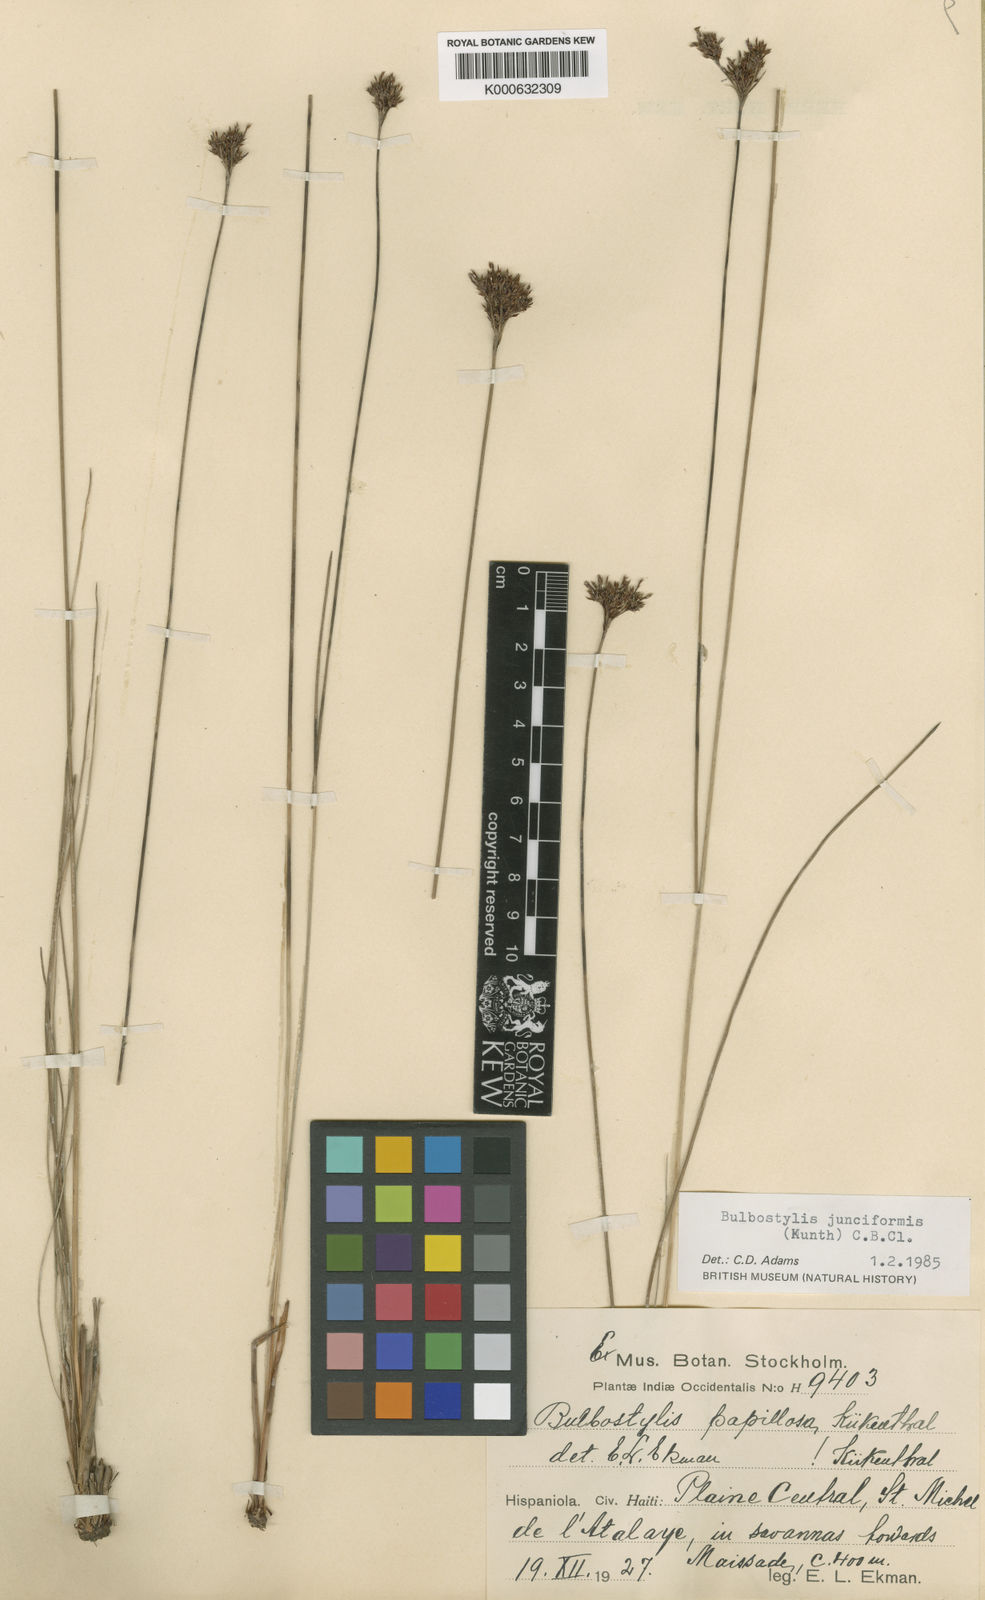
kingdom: Plantae
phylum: Tracheophyta
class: Liliopsida
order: Poales
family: Cyperaceae
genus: Bulbostylis
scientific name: Bulbostylis junciformis
